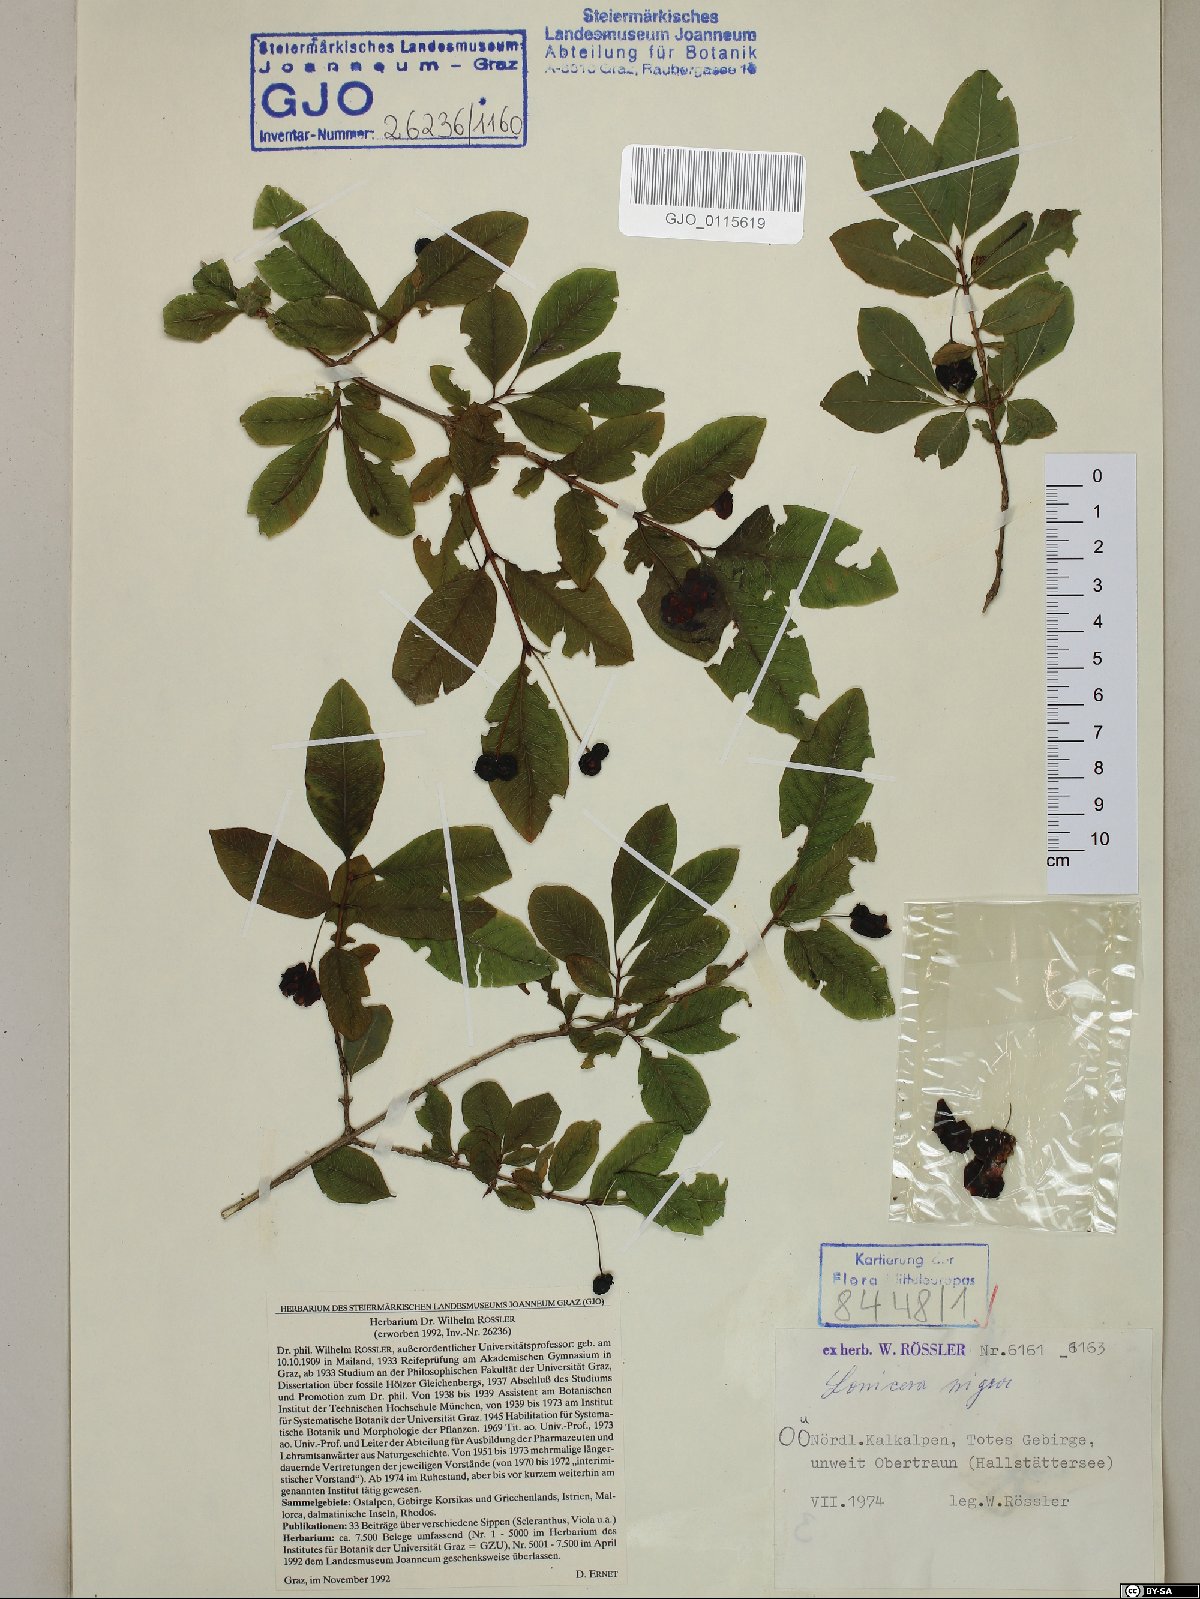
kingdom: Plantae
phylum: Tracheophyta
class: Magnoliopsida
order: Dipsacales
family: Caprifoliaceae
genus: Lonicera
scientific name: Lonicera nigra
